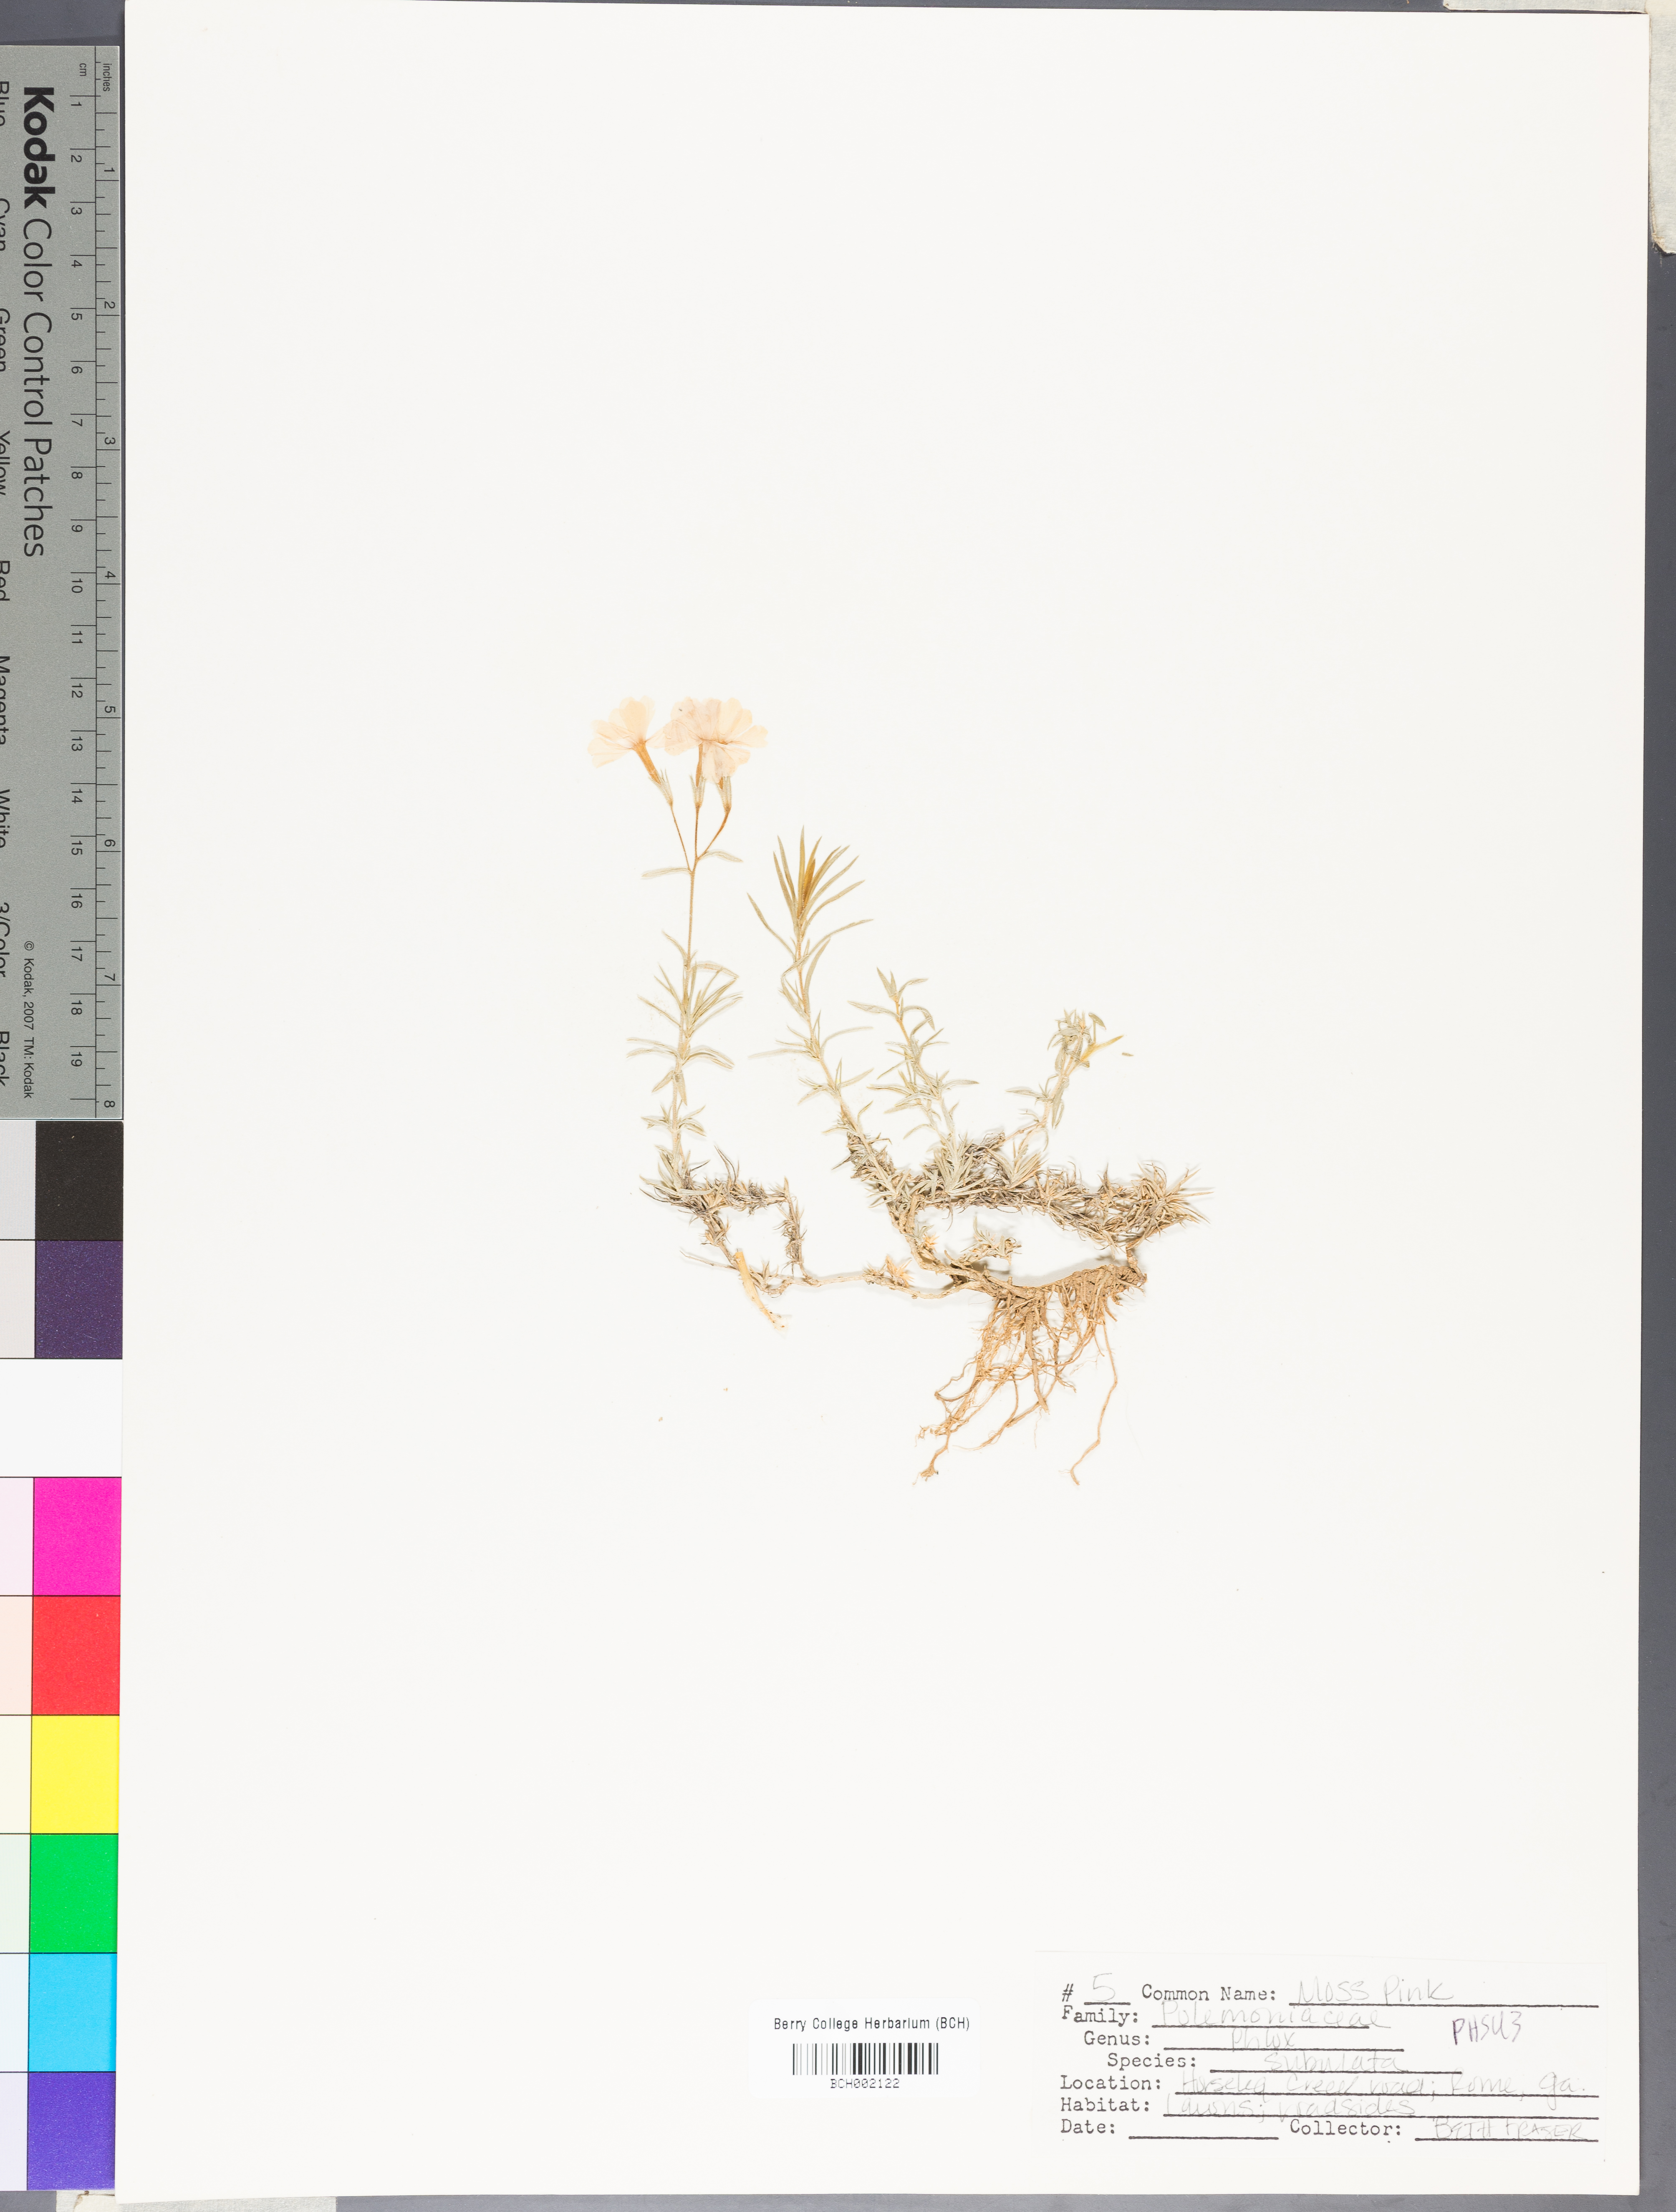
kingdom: Plantae
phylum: Tracheophyta
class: Magnoliopsida
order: Ericales
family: Polemoniaceae
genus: Phlox
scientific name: Phlox subulata
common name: Moss phlox
